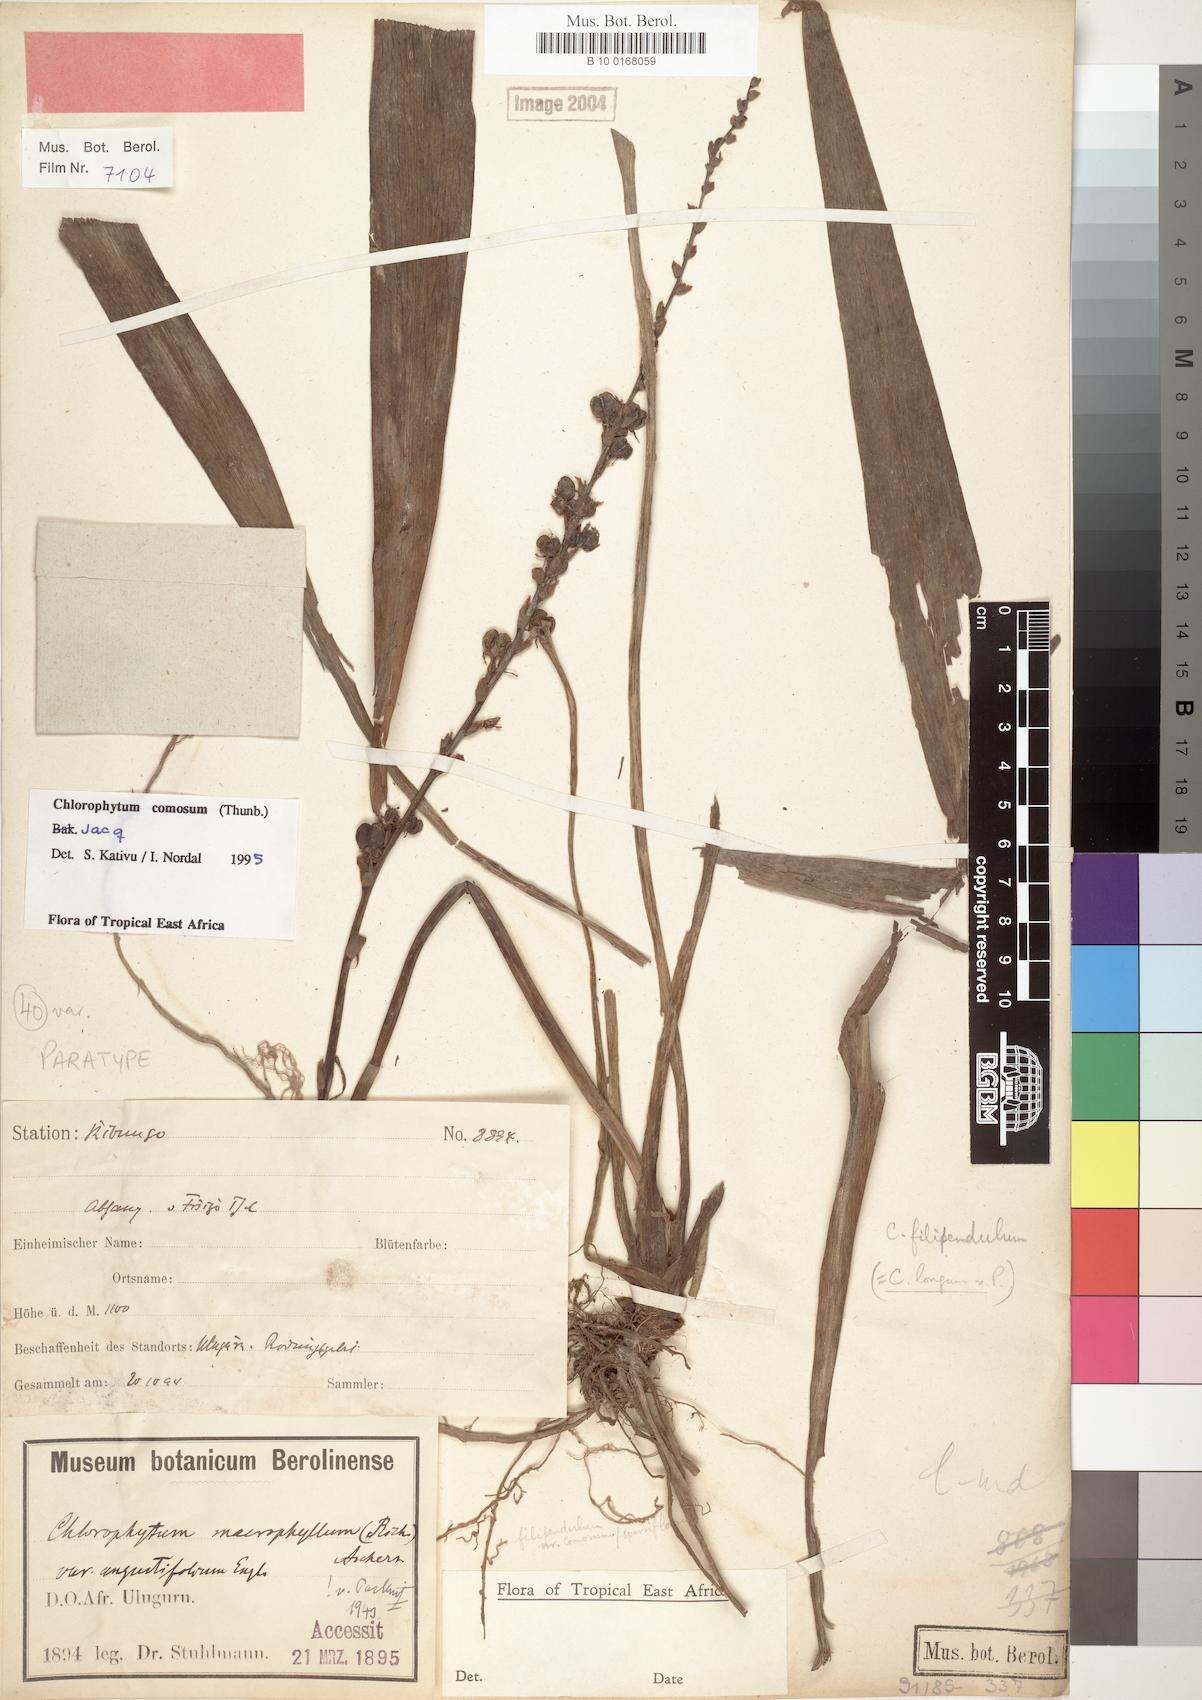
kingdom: Plantae
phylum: Tracheophyta
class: Liliopsida
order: Asparagales
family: Asparagaceae
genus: Chlorophytum
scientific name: Chlorophytum comosum
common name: Spider plant
